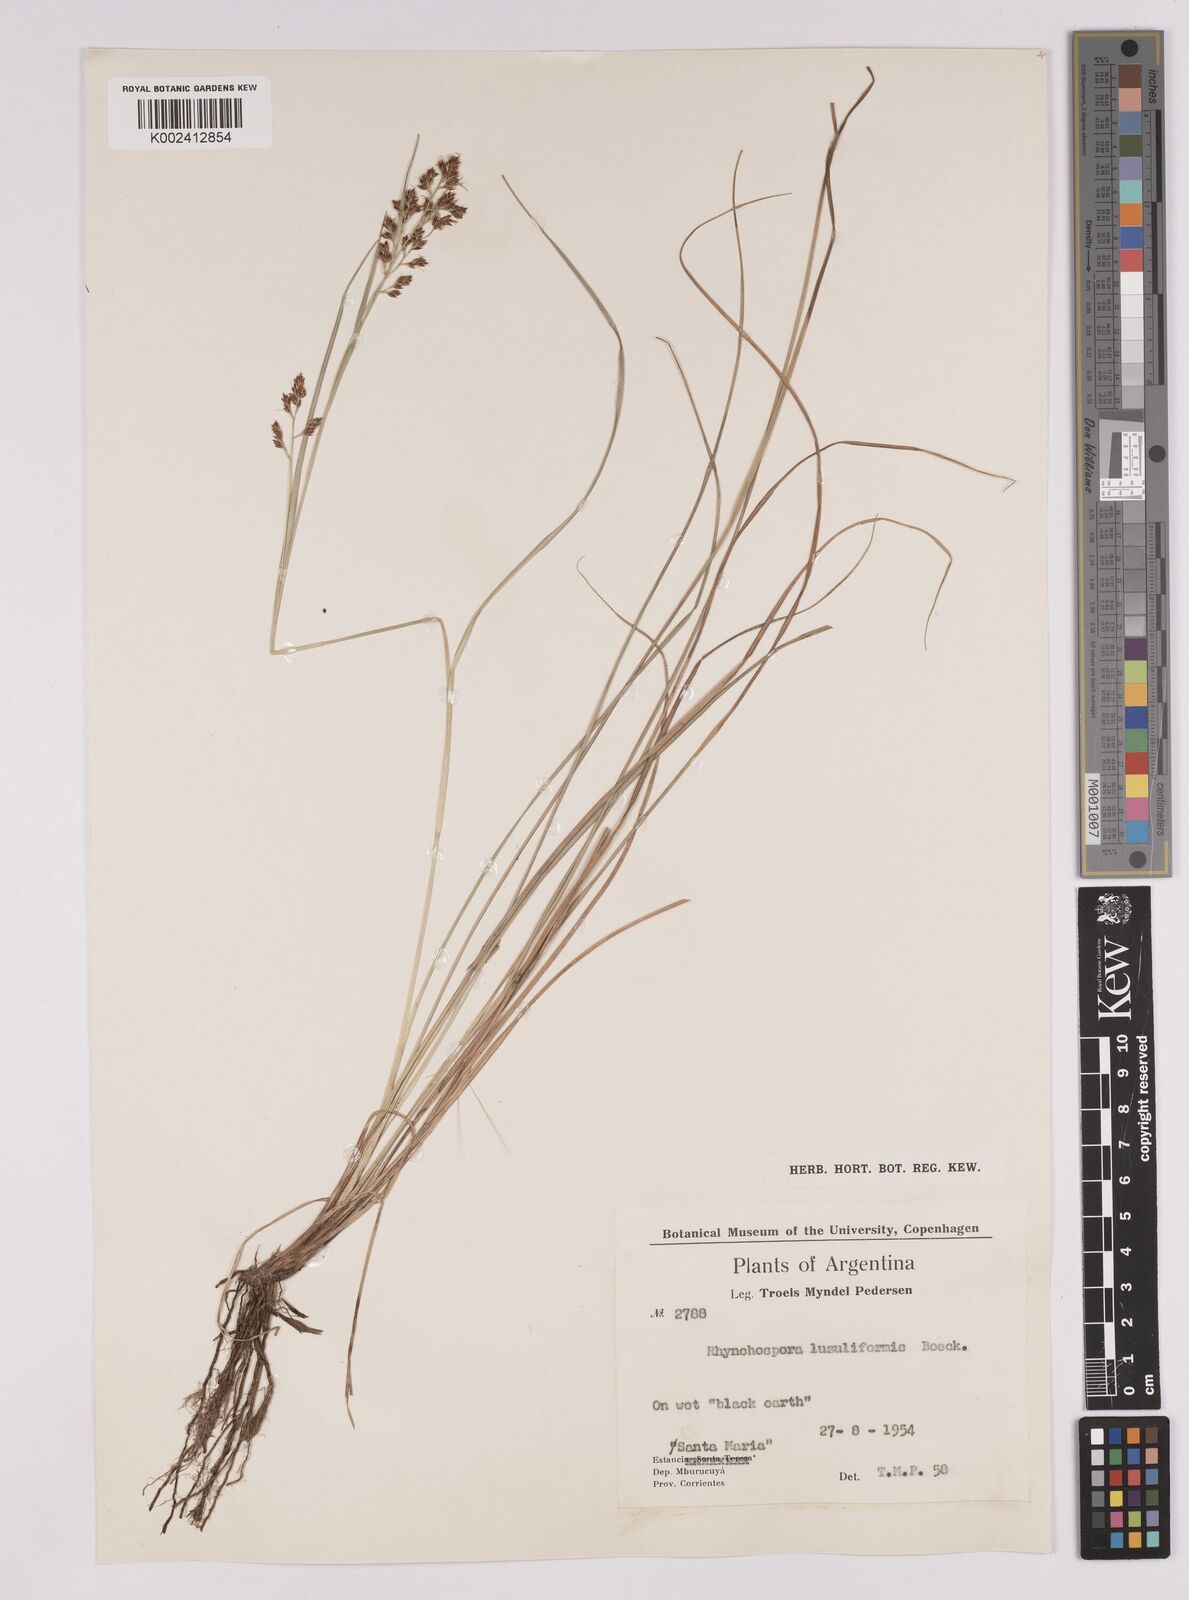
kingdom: Plantae
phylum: Tracheophyta
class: Liliopsida
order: Poales
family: Cyperaceae
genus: Rhynchospora
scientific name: Rhynchospora megapotamica
